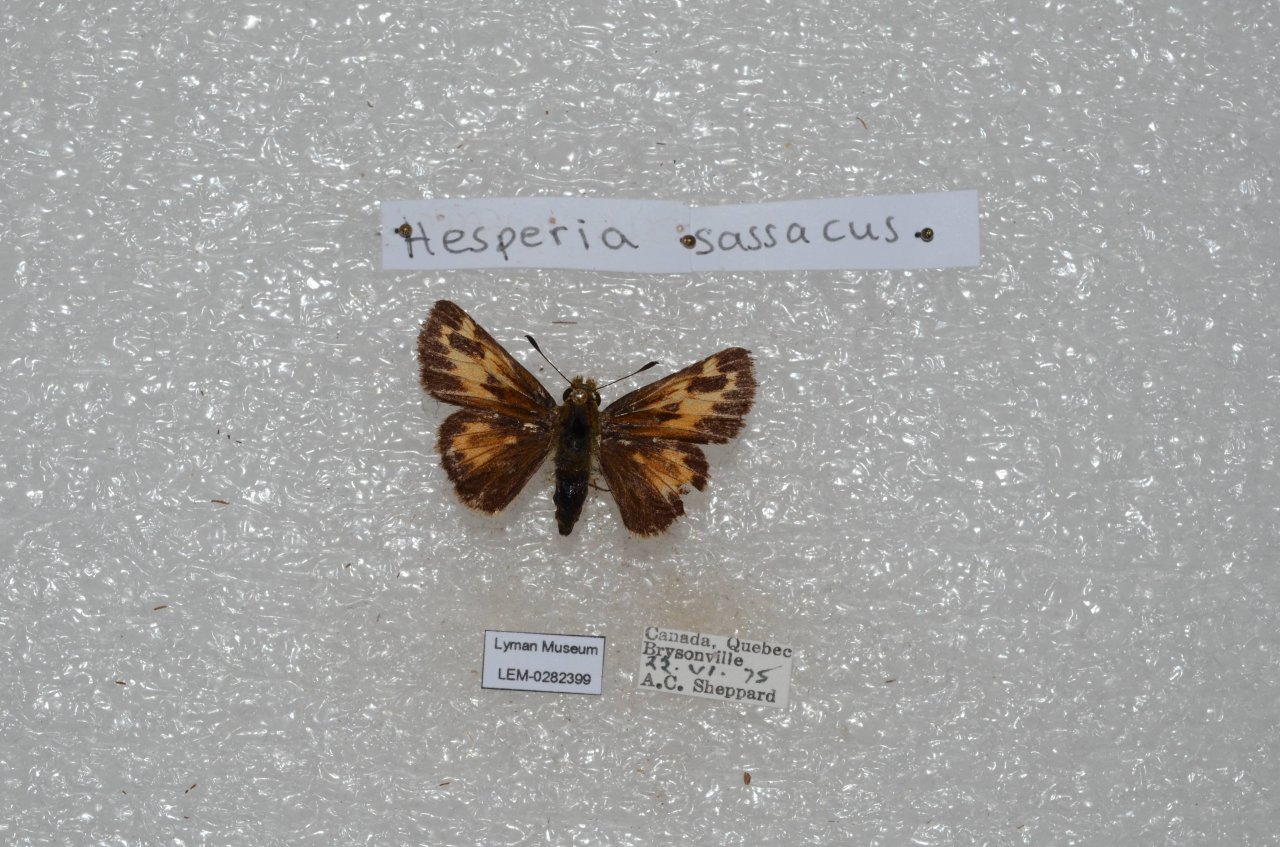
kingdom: Animalia
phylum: Arthropoda
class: Insecta
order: Lepidoptera
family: Hesperiidae
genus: Hesperia
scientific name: Hesperia sassacus
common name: Sassacus Skipper
